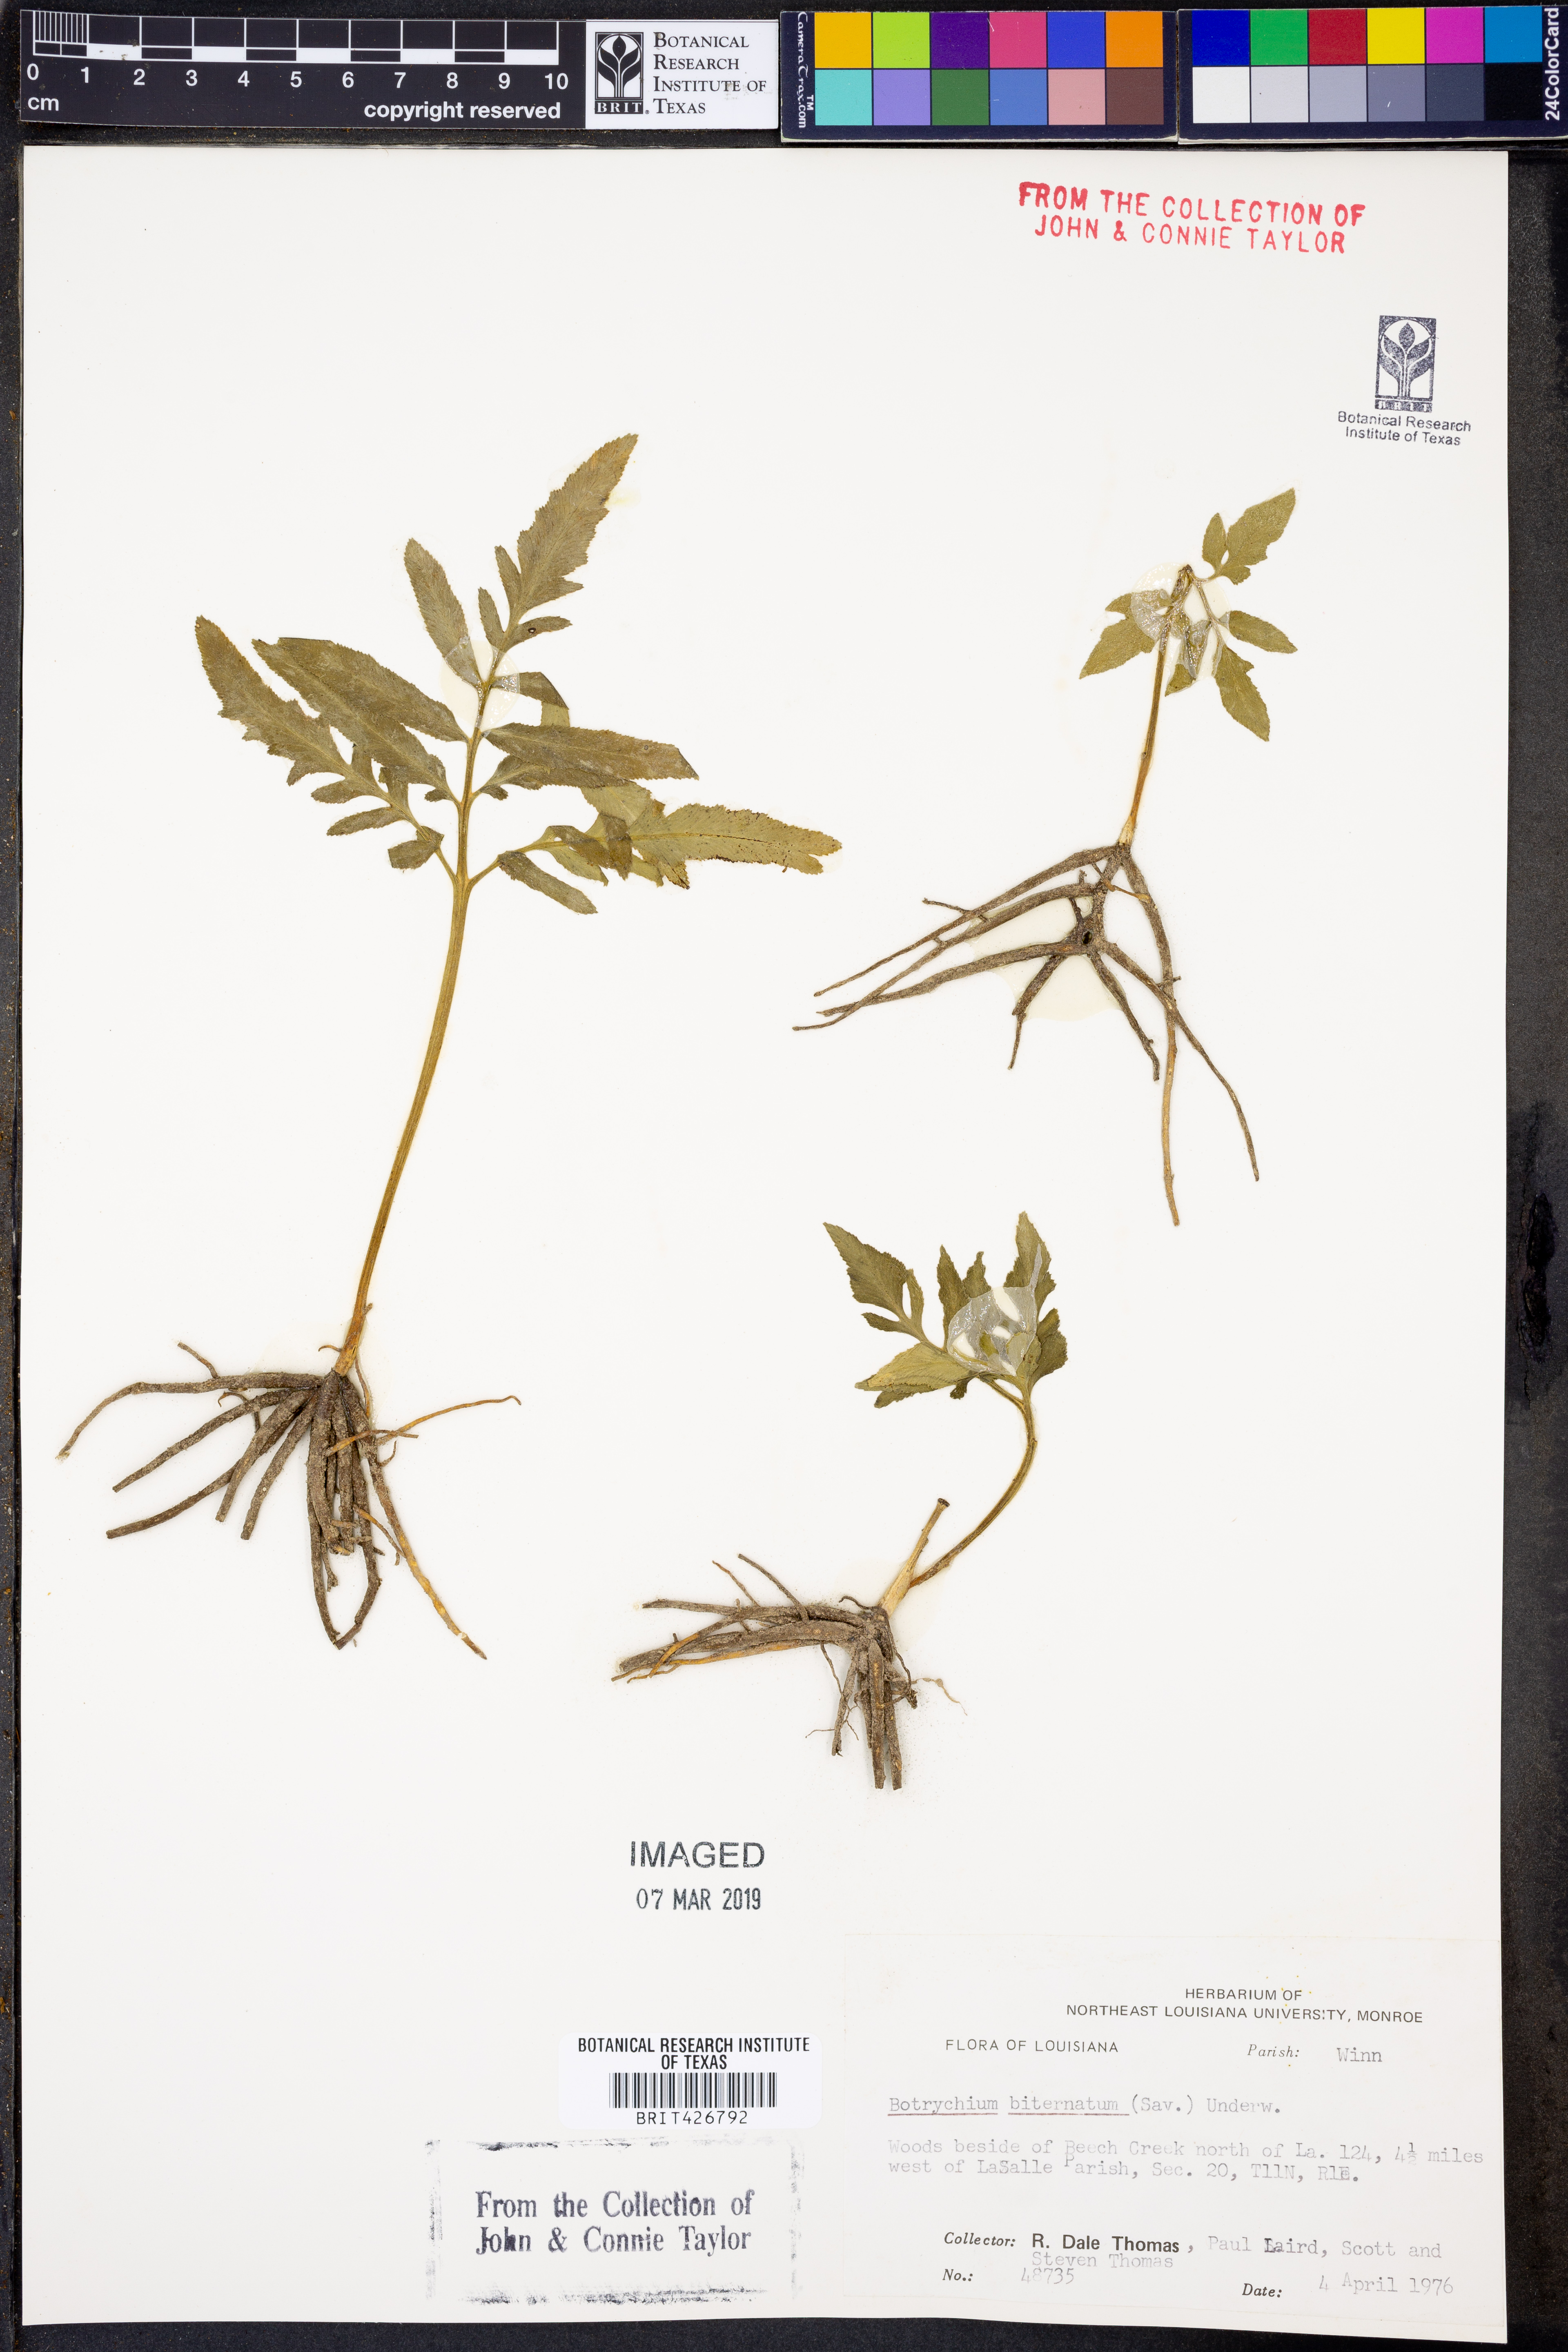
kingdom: Plantae
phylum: Tracheophyta
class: Polypodiopsida
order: Ophioglossales
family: Ophioglossaceae
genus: Sceptridium
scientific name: Sceptridium biternatum
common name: Sparse-lobed grapefern
